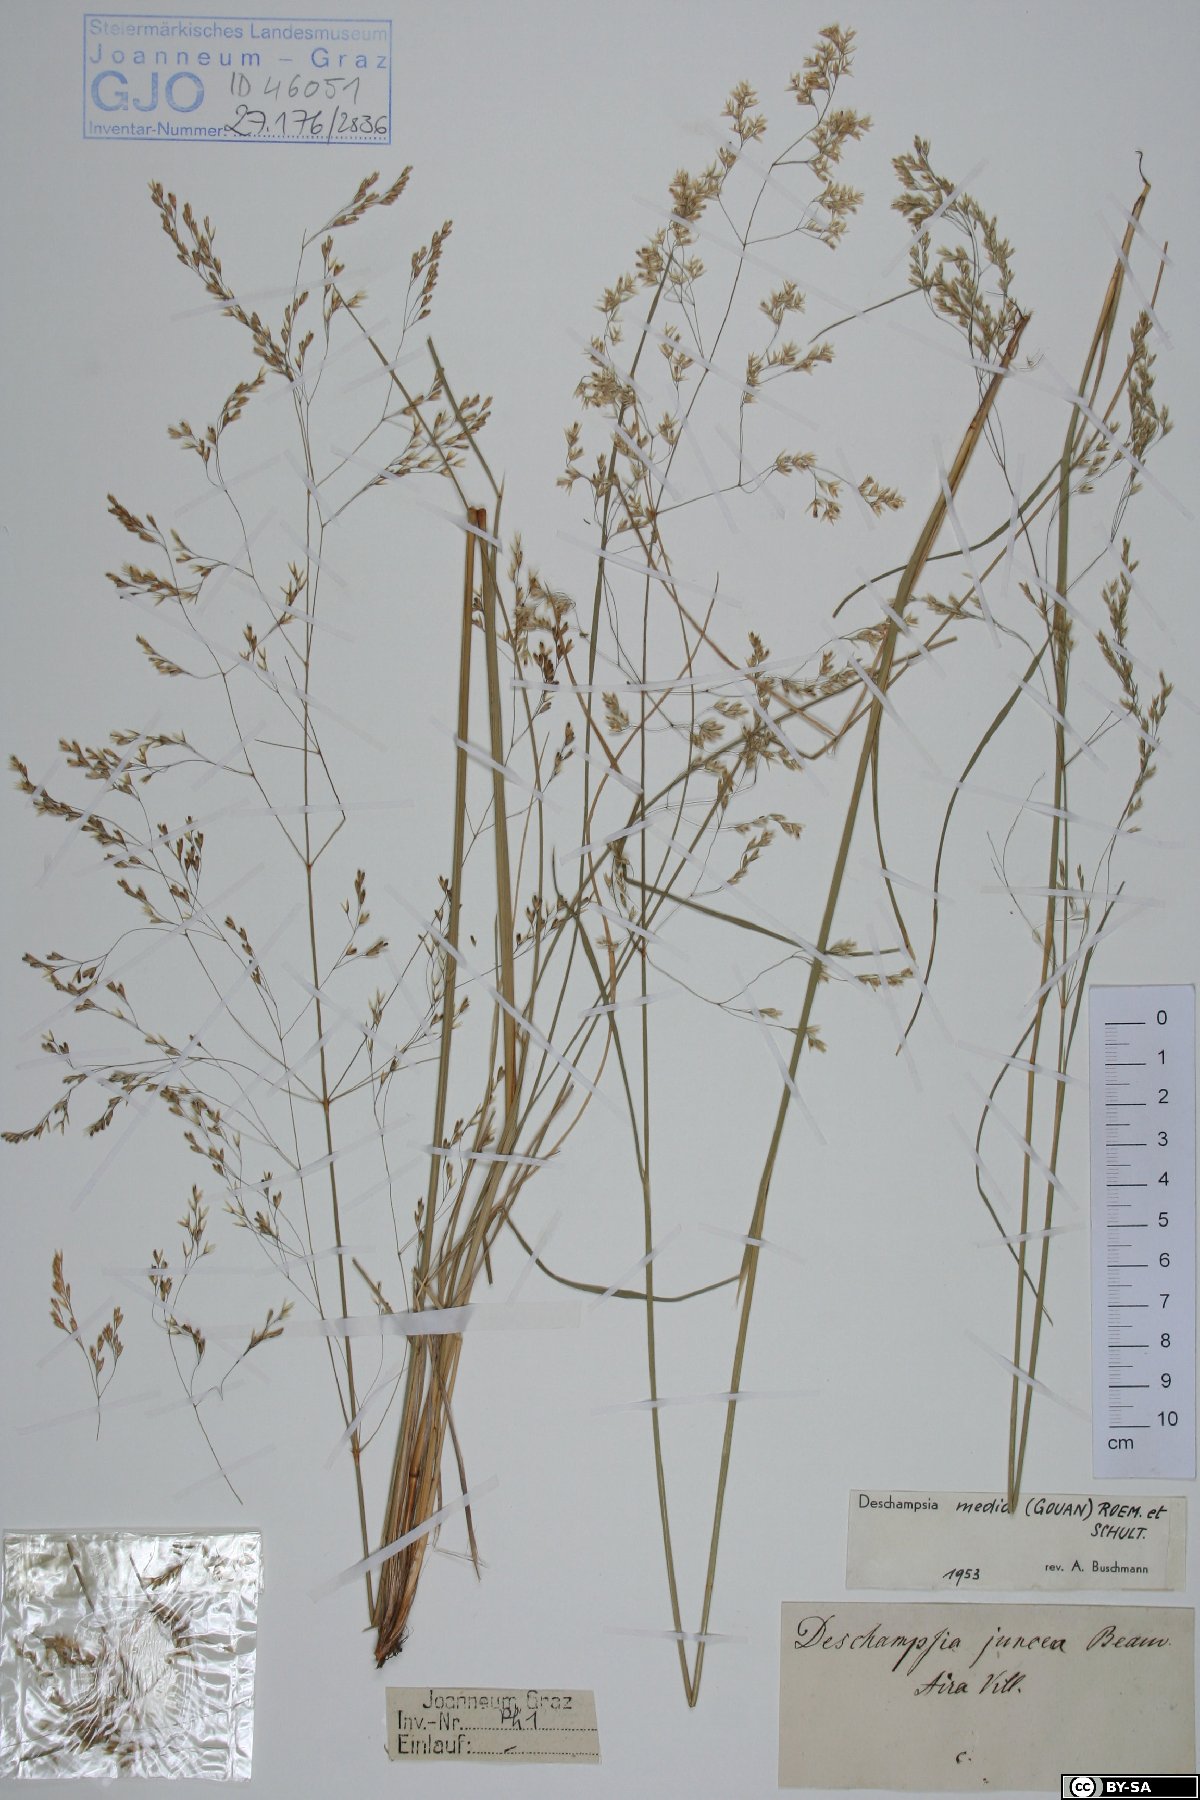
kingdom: Plantae
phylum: Tracheophyta
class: Liliopsida
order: Poales
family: Poaceae
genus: Deschampsia
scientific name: Deschampsia media
